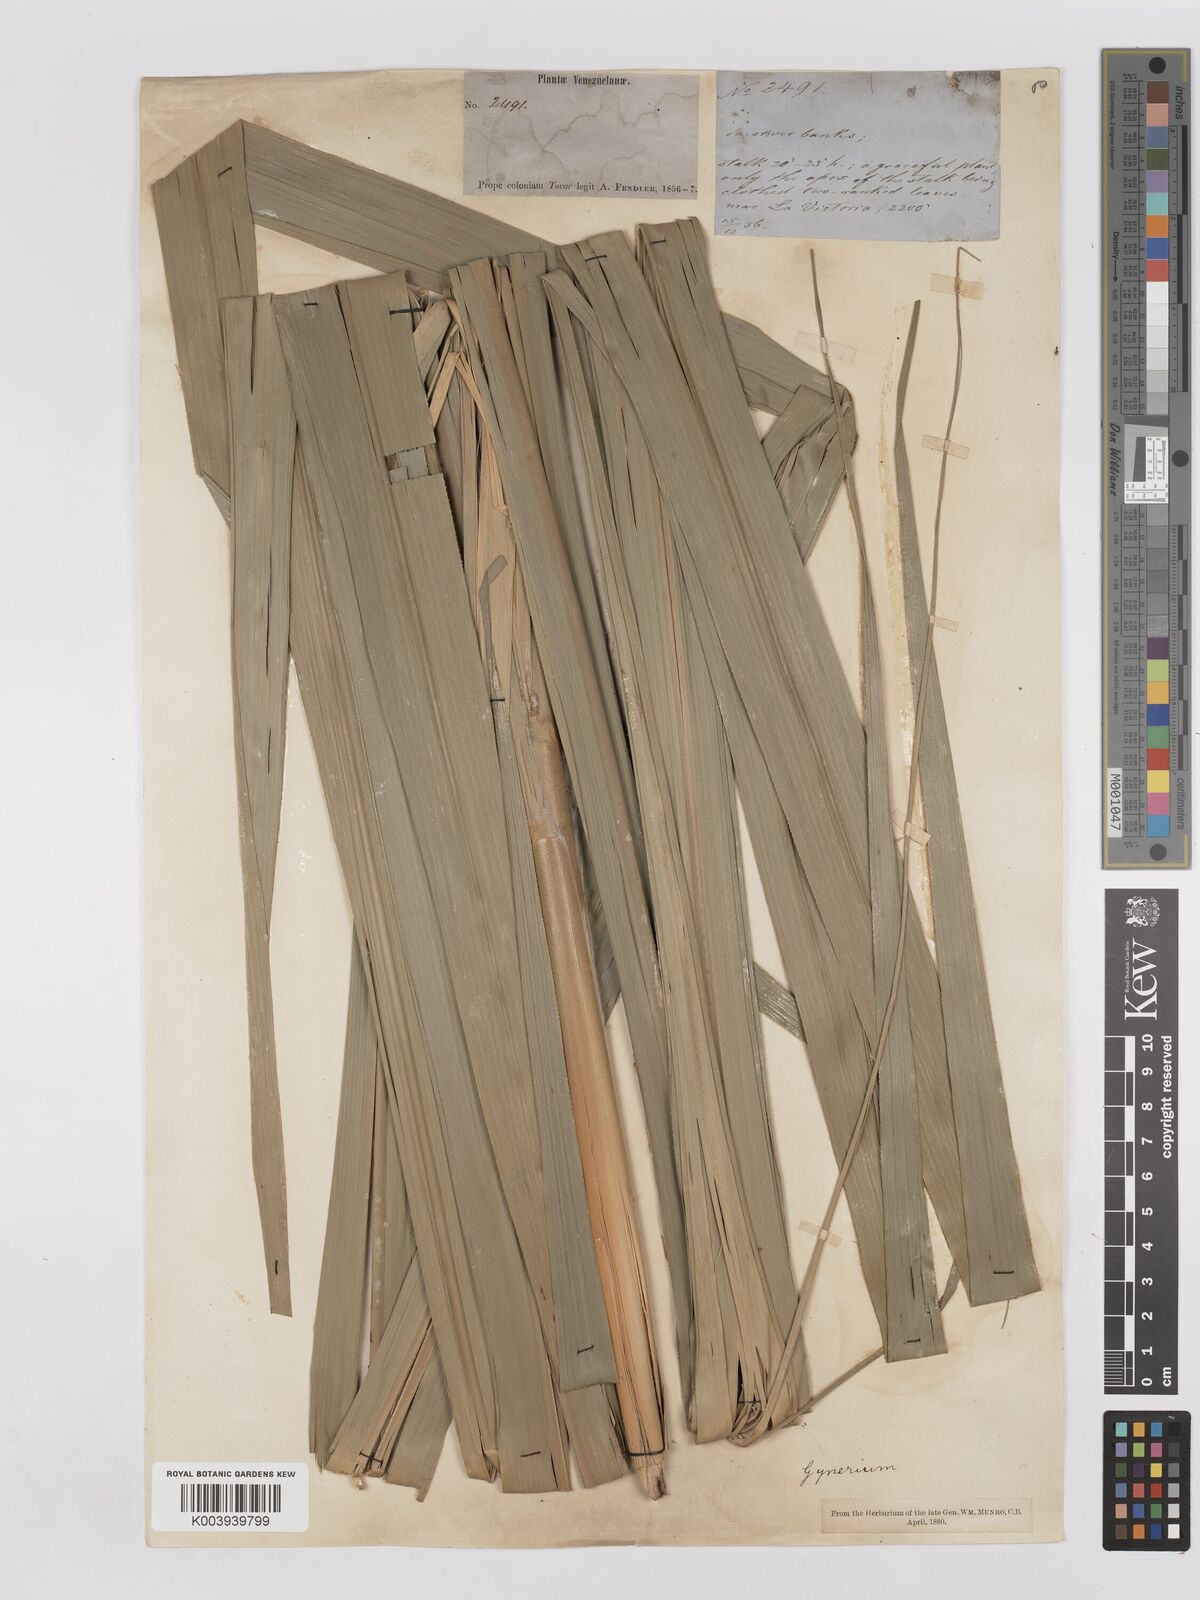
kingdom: Plantae
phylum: Tracheophyta
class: Liliopsida
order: Poales
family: Poaceae
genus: Gynerium
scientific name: Gynerium sagittatum
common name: Wild cane
